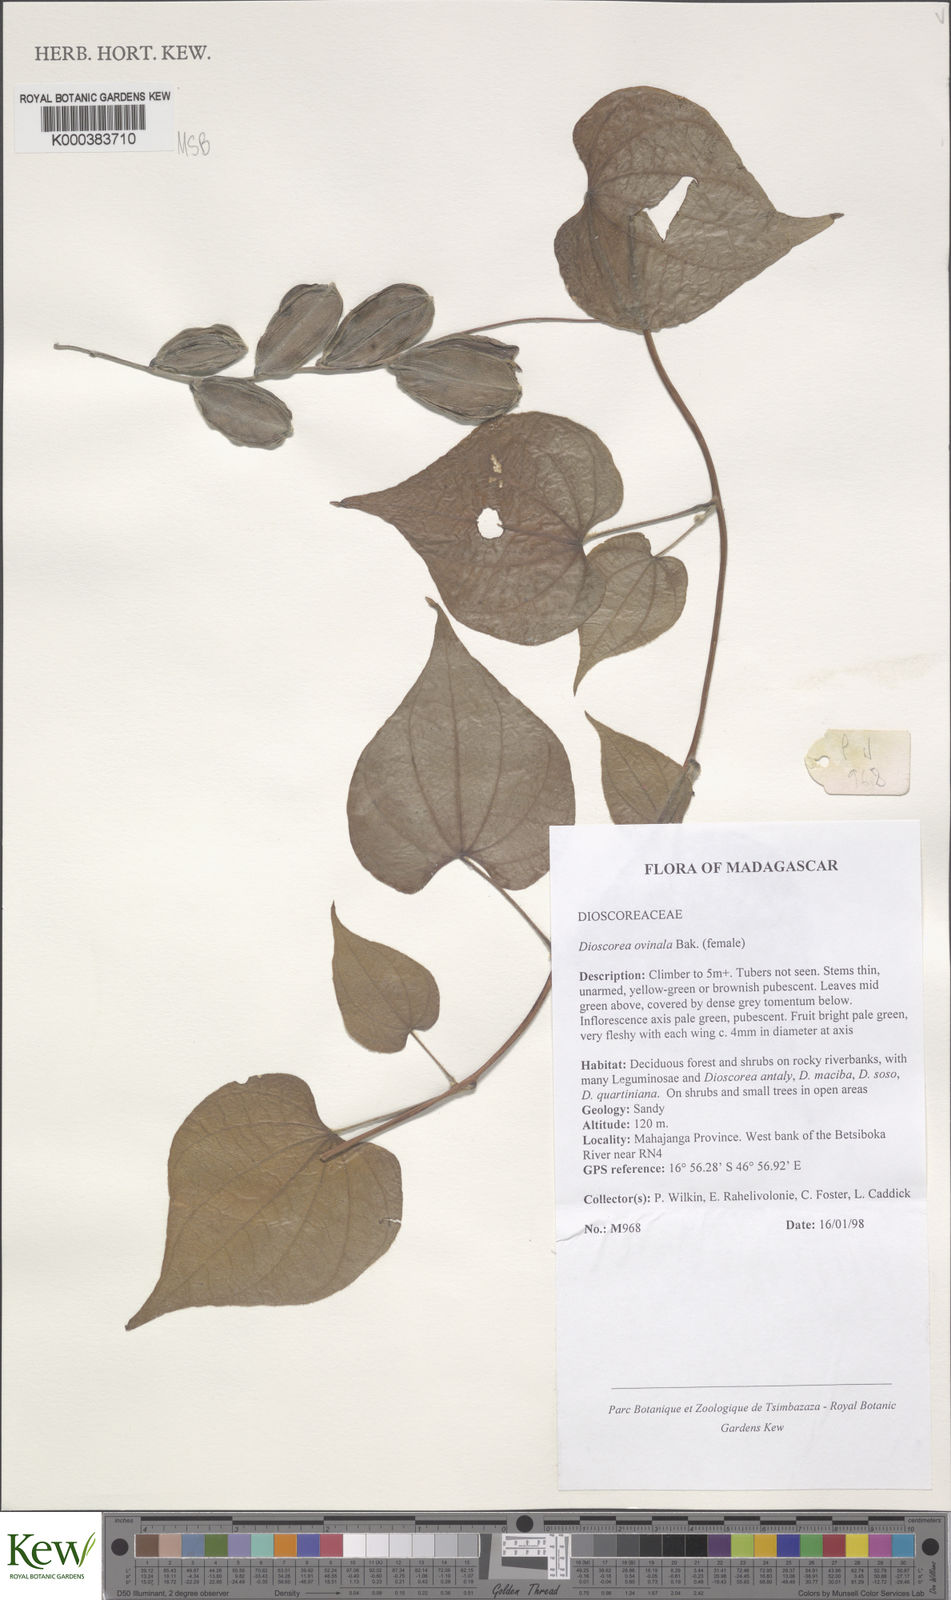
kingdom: Plantae
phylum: Tracheophyta
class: Liliopsida
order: Dioscoreales
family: Dioscoreaceae
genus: Dioscorea
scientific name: Dioscorea ovinala
